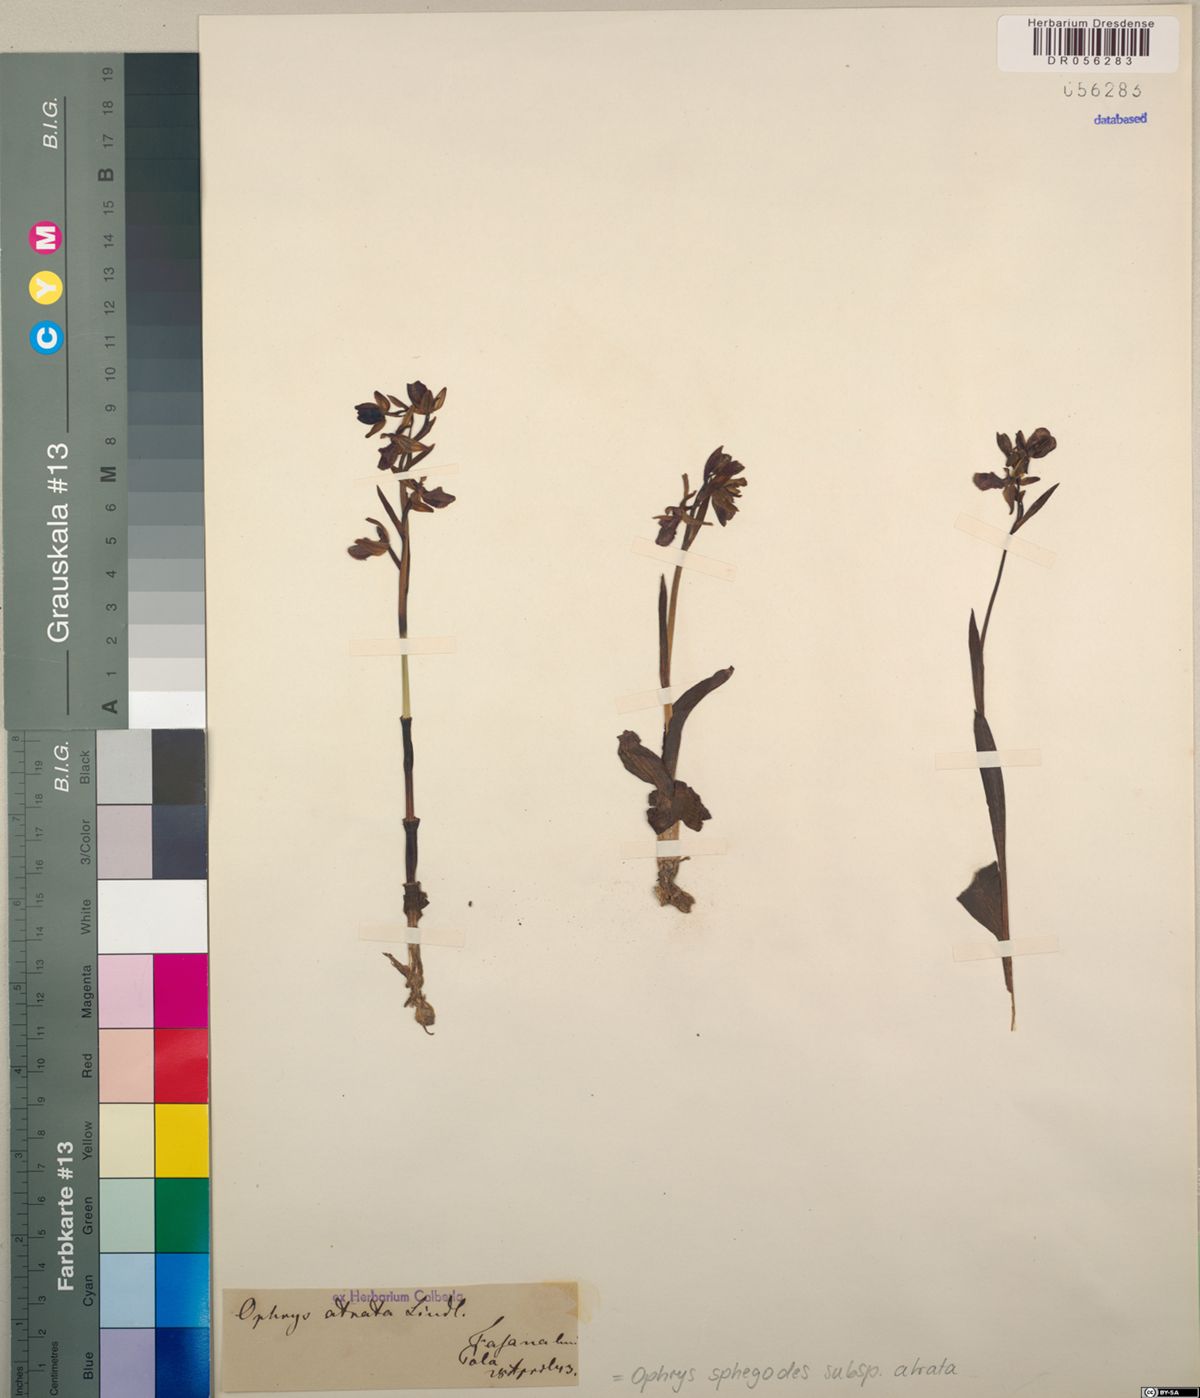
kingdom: Plantae
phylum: Tracheophyta
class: Liliopsida
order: Asparagales
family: Orchidaceae
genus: Ophrys
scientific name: Ophrys sphegodes
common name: Early spider-orchid
